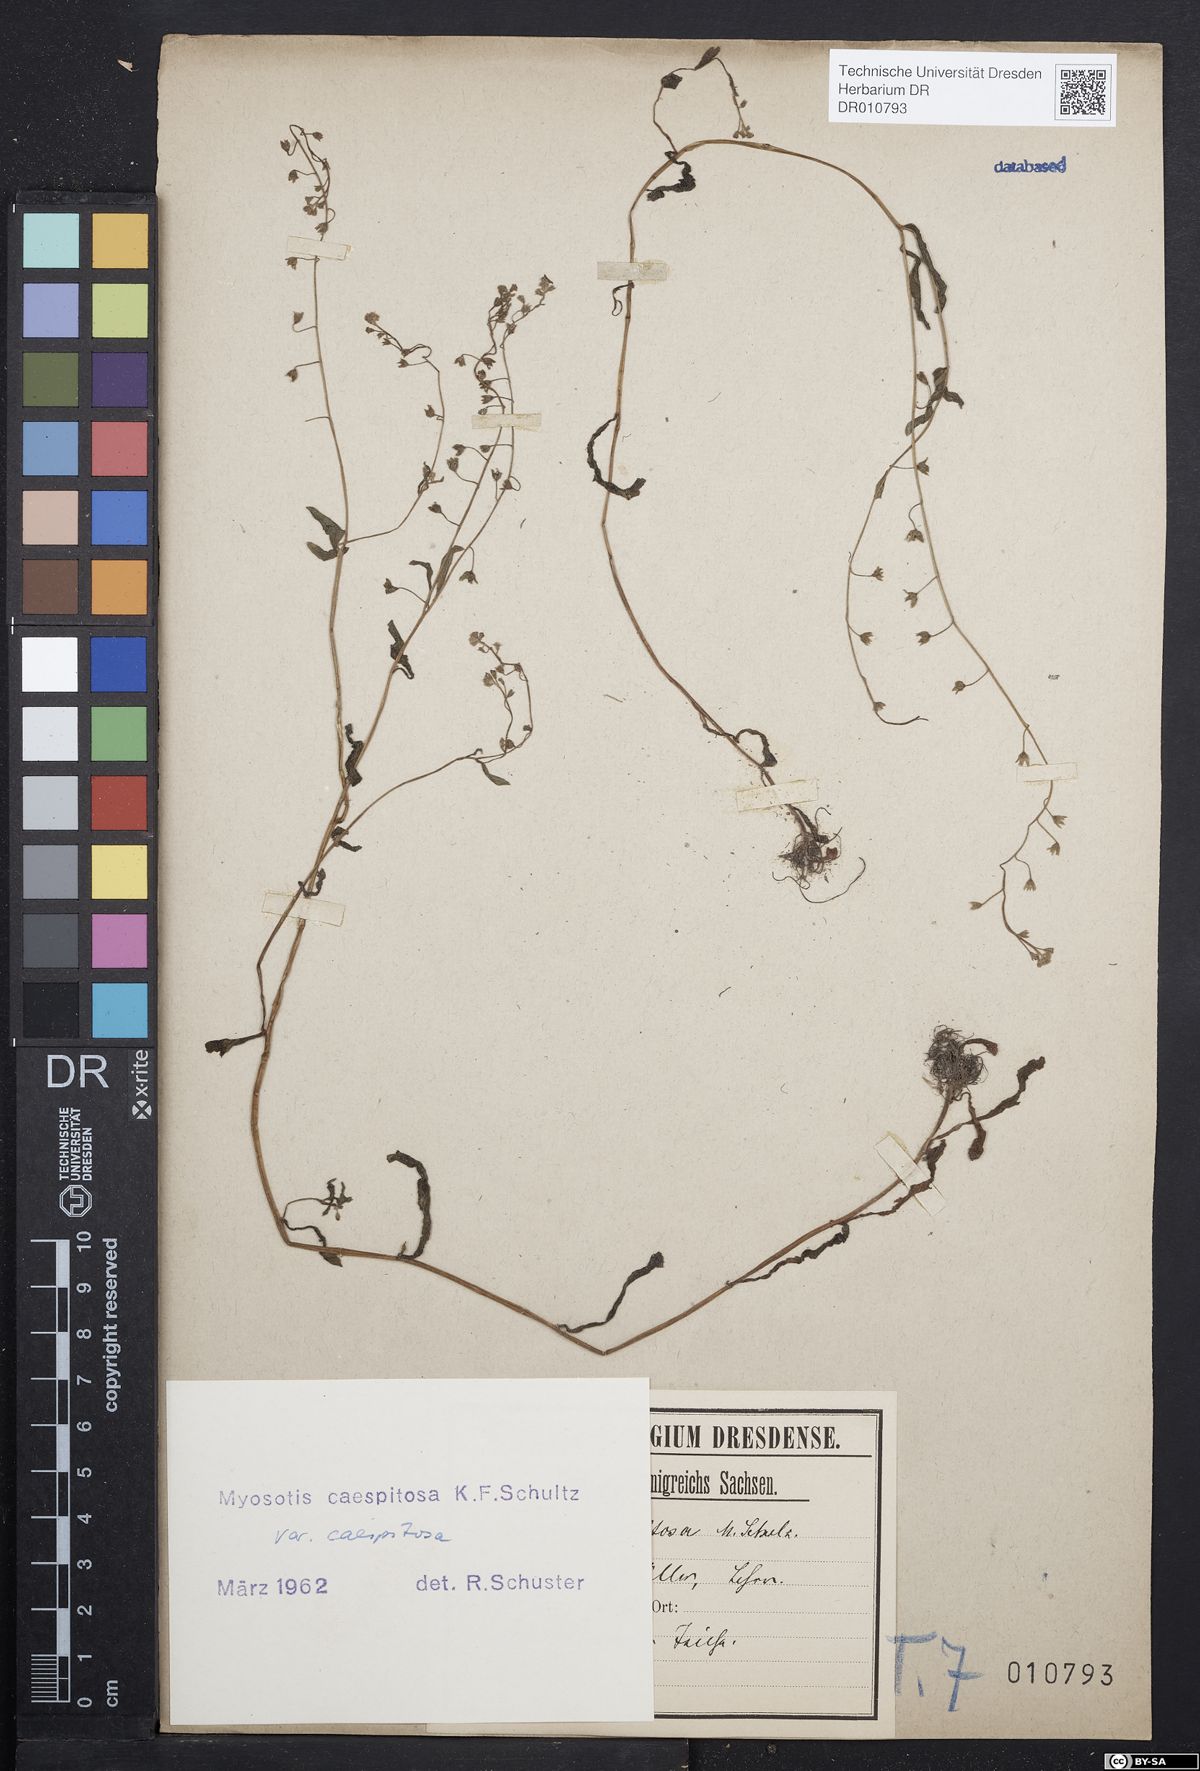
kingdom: Plantae
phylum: Tracheophyta
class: Magnoliopsida
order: Boraginales
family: Boraginaceae
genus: Myosotis
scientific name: Myosotis laxa
